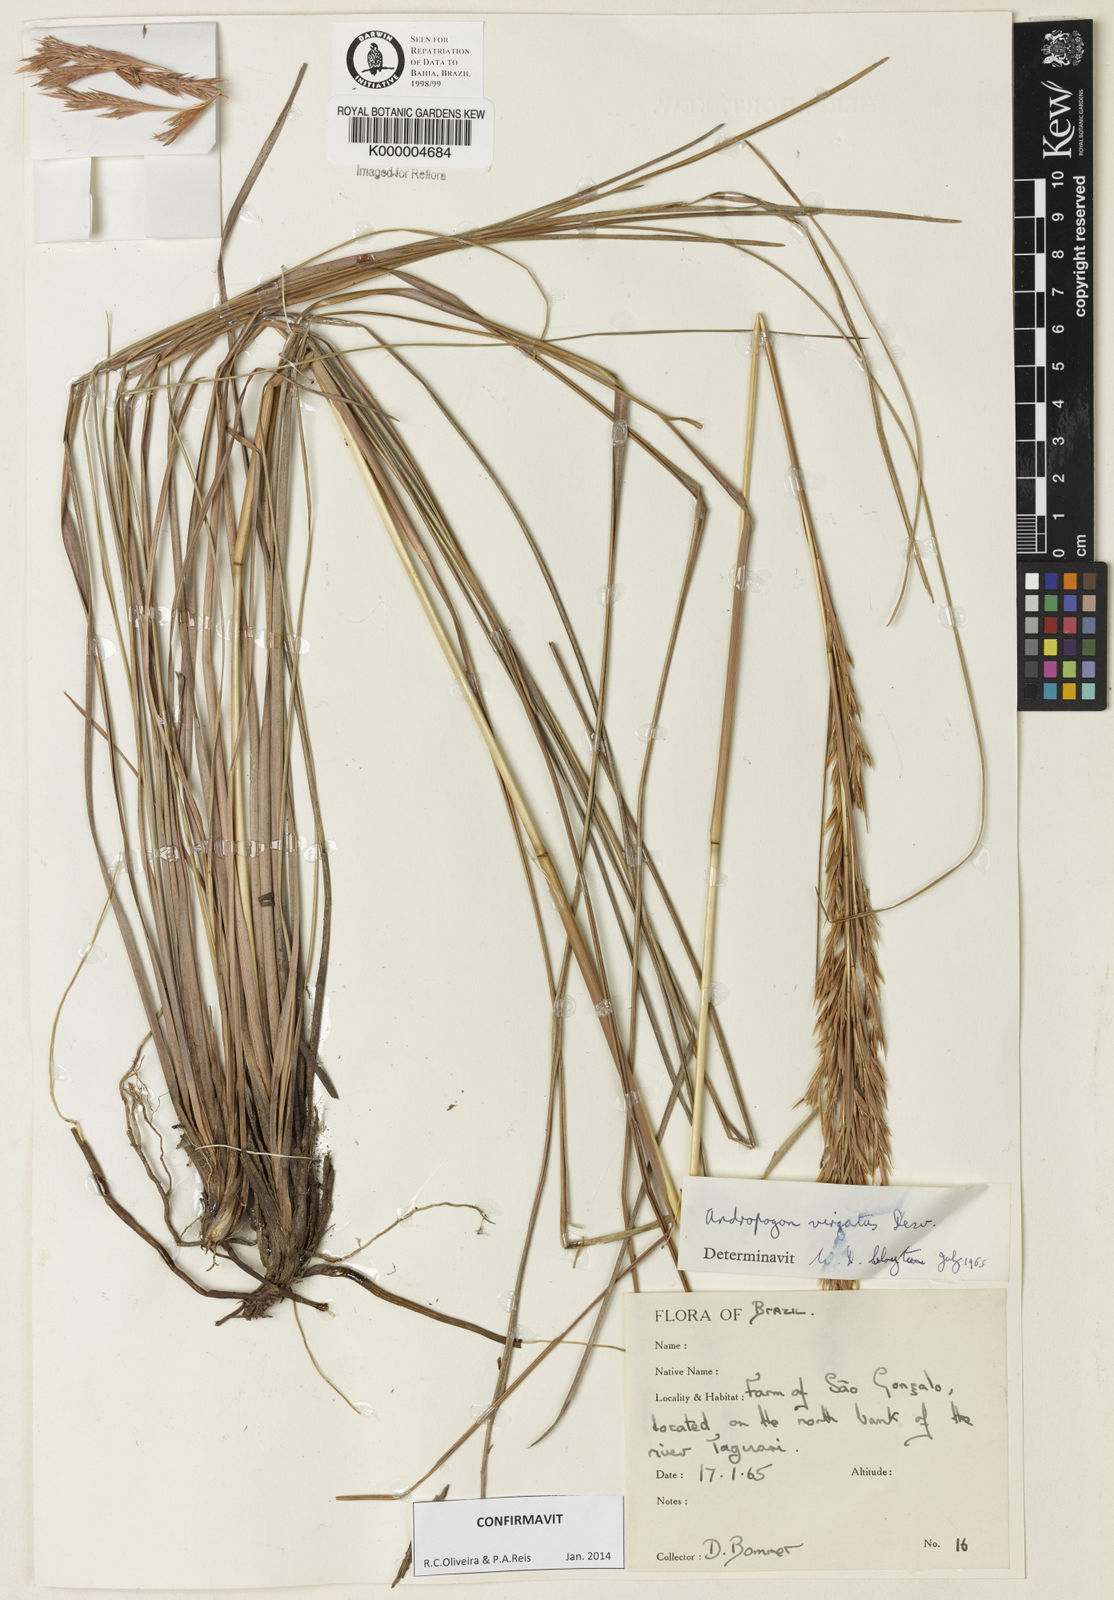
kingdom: Plantae
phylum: Tracheophyta
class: Liliopsida
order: Poales
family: Poaceae
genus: Andropogon
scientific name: Andropogon virgatus
